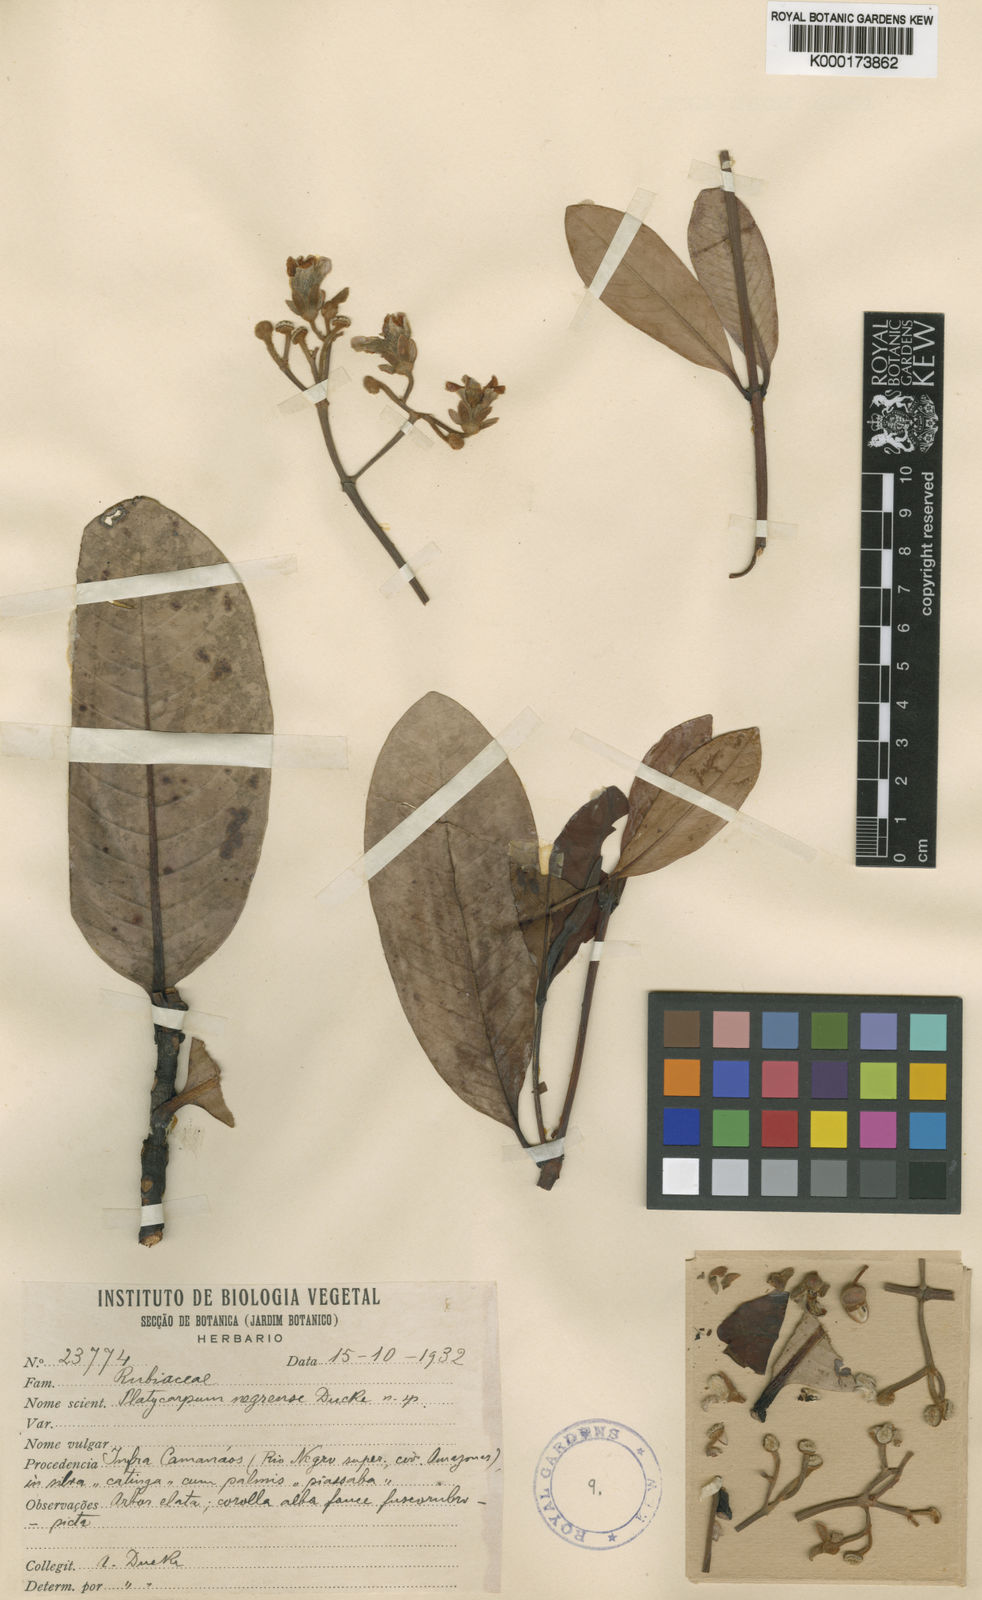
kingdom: Plantae
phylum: Tracheophyta
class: Magnoliopsida
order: Gentianales
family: Rubiaceae
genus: Platycarpum
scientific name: Platycarpum negrense
